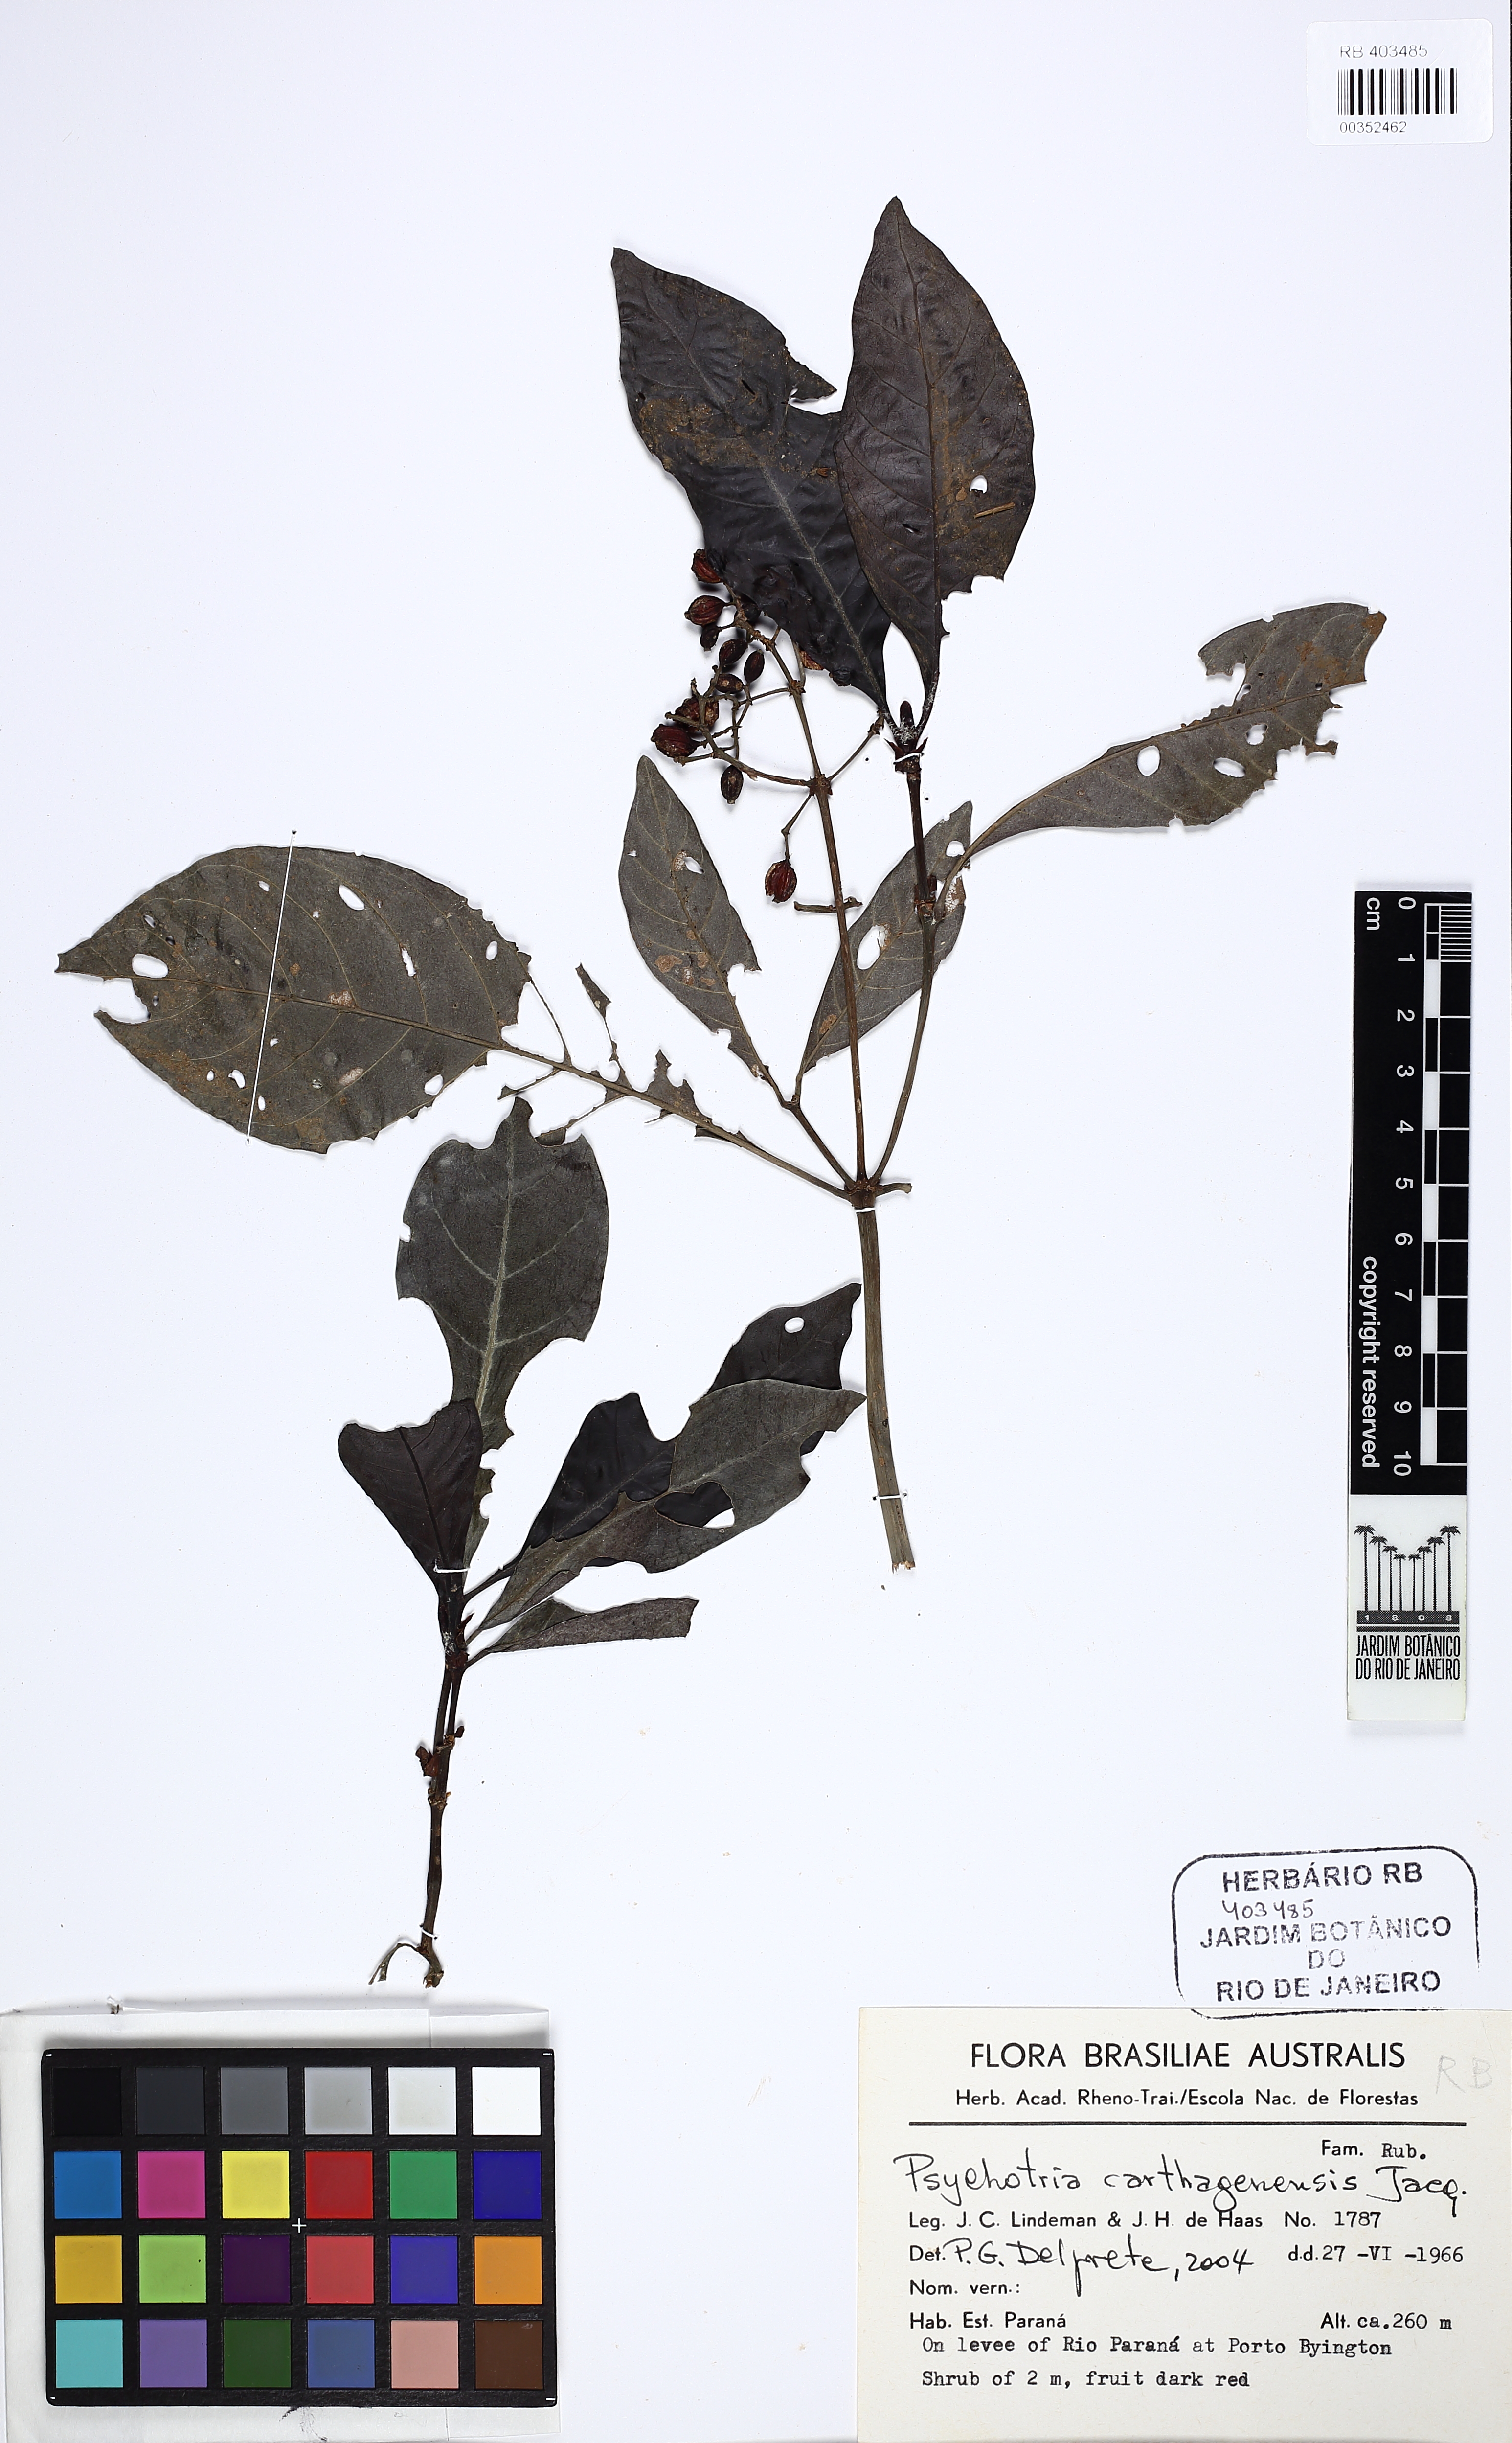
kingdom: Plantae
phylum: Tracheophyta
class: Magnoliopsida
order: Gentianales
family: Rubiaceae
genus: Psychotria
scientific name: Psychotria carthagenensis
